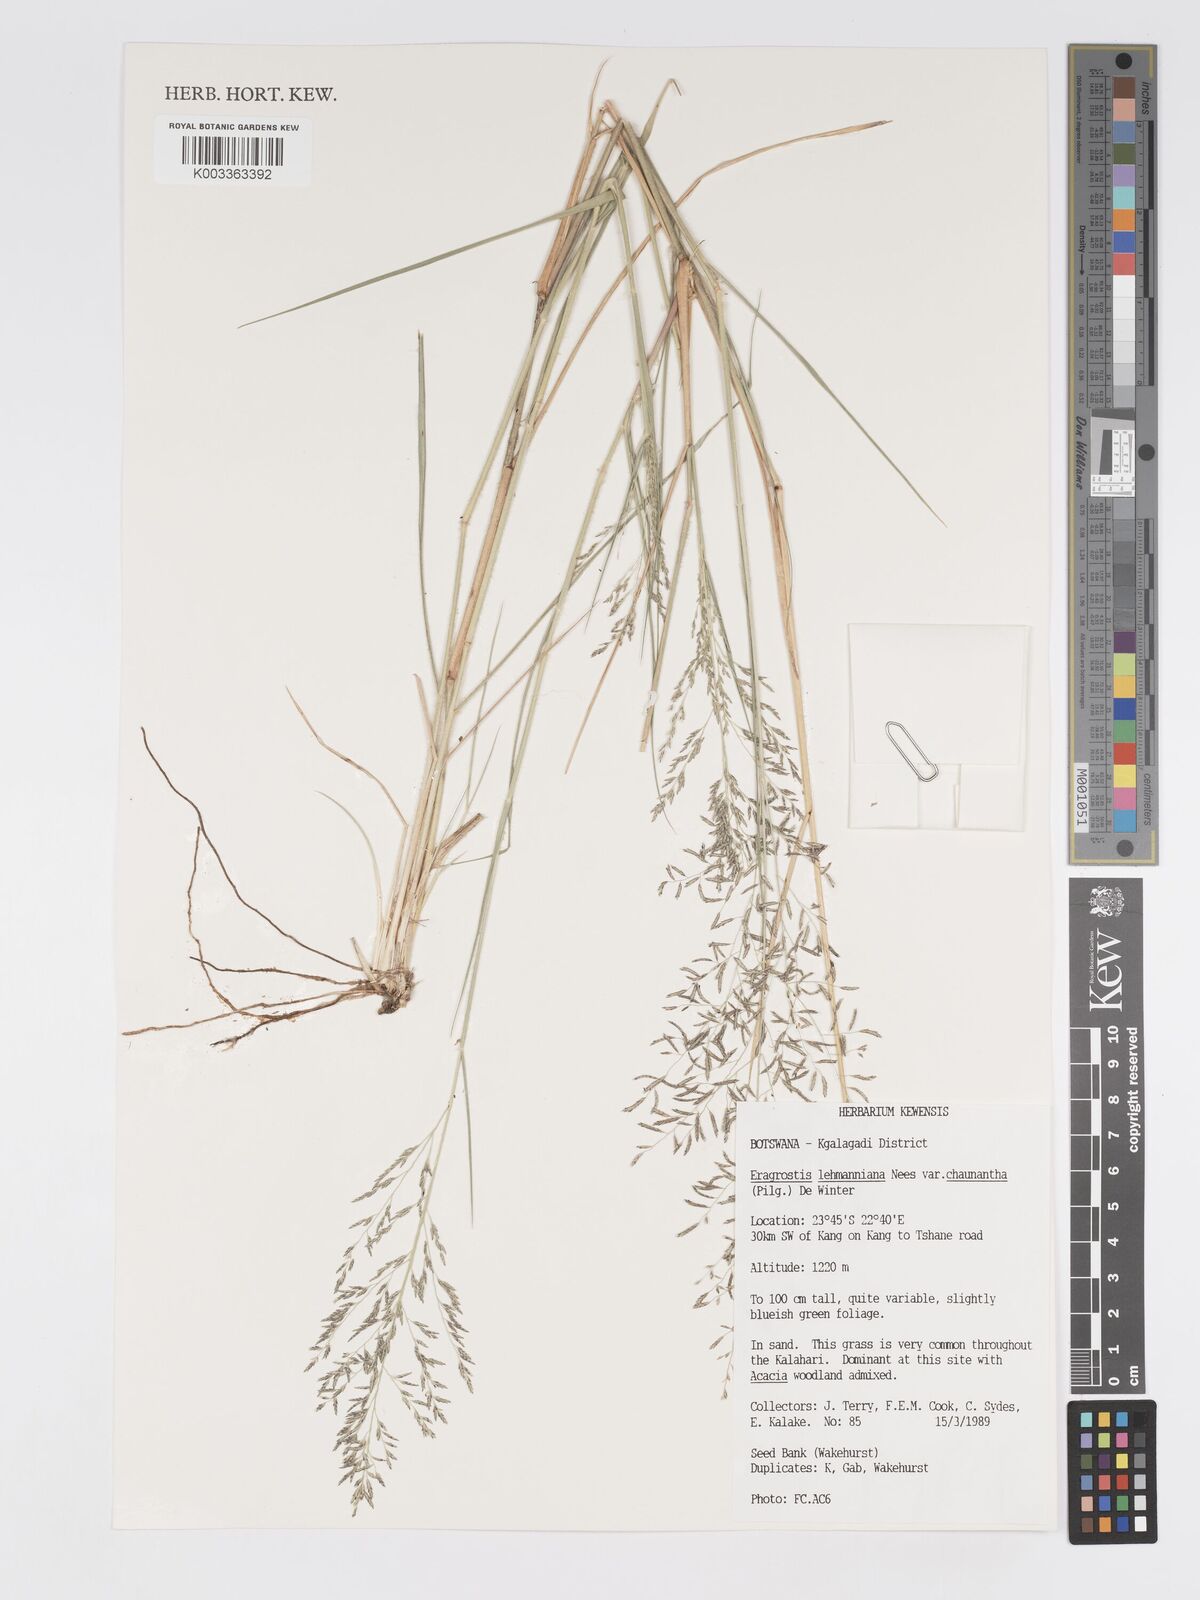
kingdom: Plantae
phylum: Tracheophyta
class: Liliopsida
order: Poales
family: Poaceae
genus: Eragrostis
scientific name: Eragrostis lehmanniana
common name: Lehmann lovegrass
